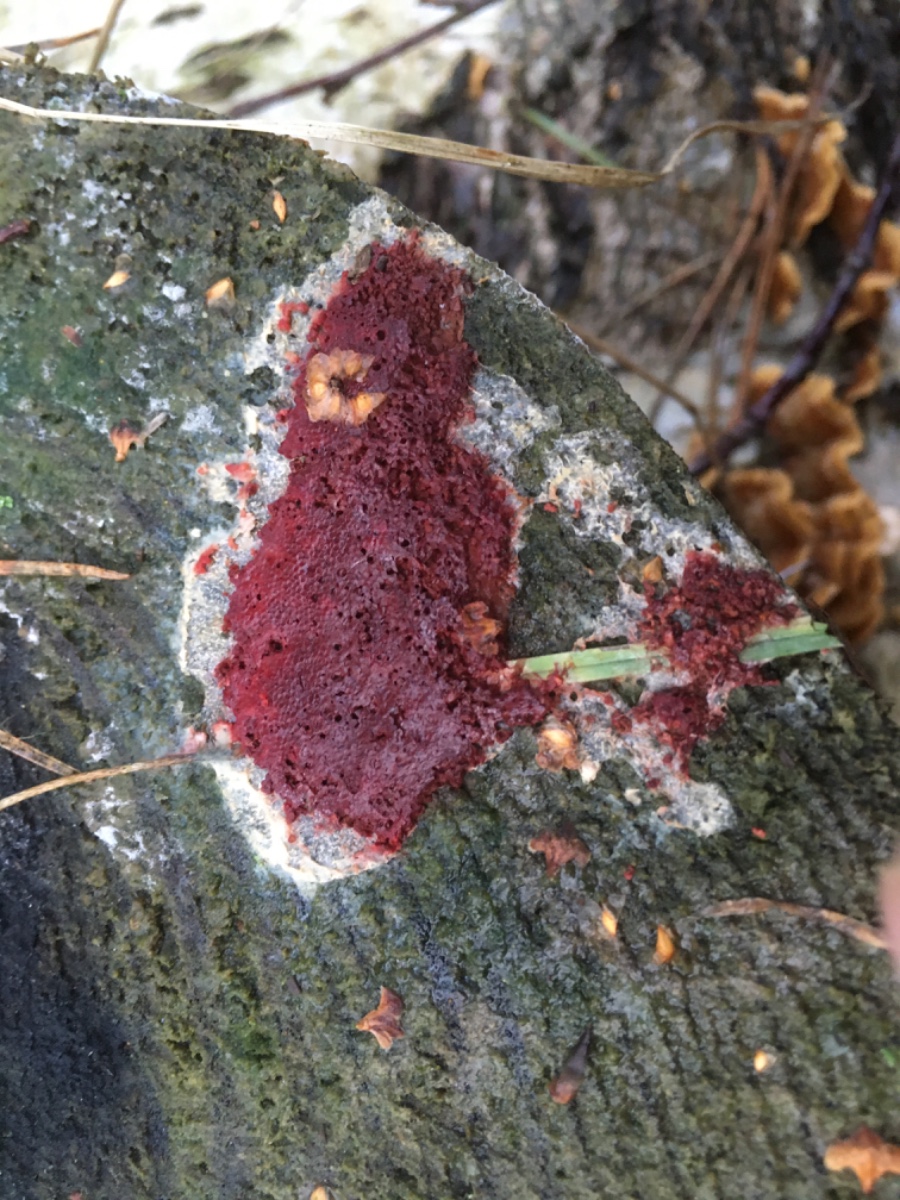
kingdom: Fungi
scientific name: Fungi
